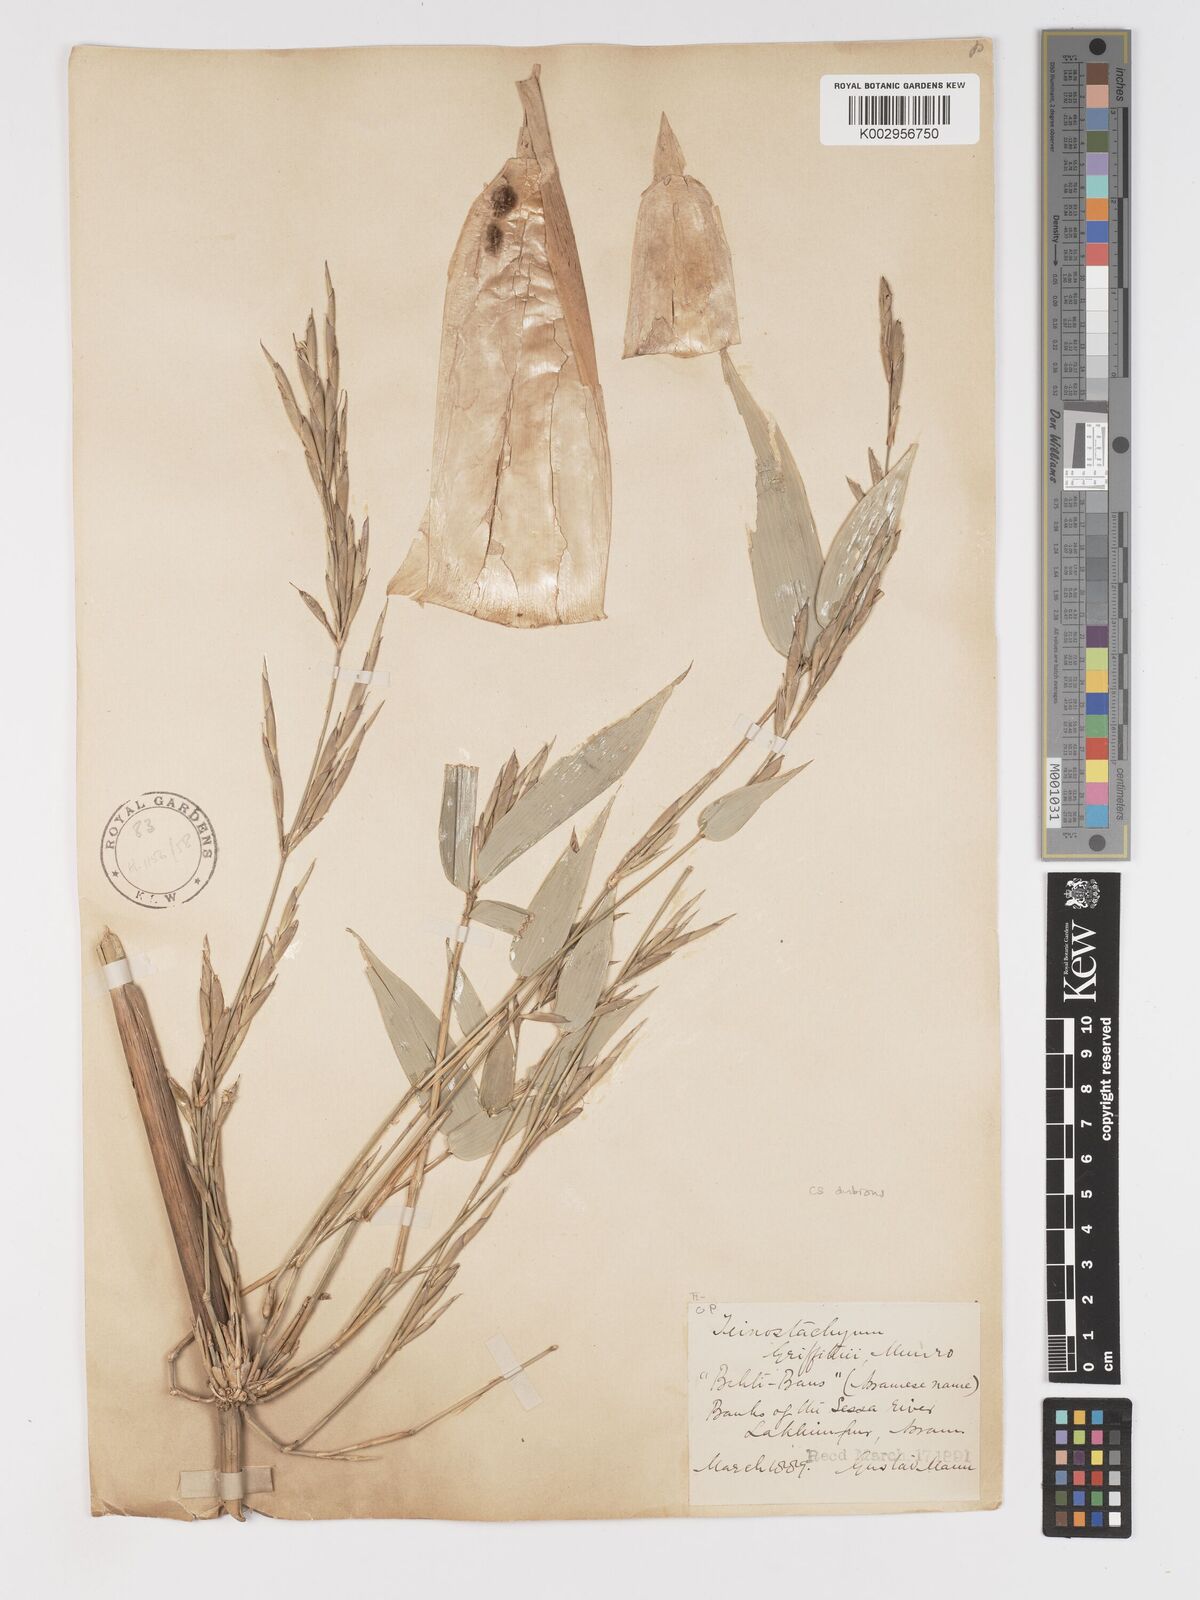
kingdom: Plantae
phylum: Tracheophyta
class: Liliopsida
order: Poales
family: Poaceae
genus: Schizostachyum
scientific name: Schizostachyum griffithii
